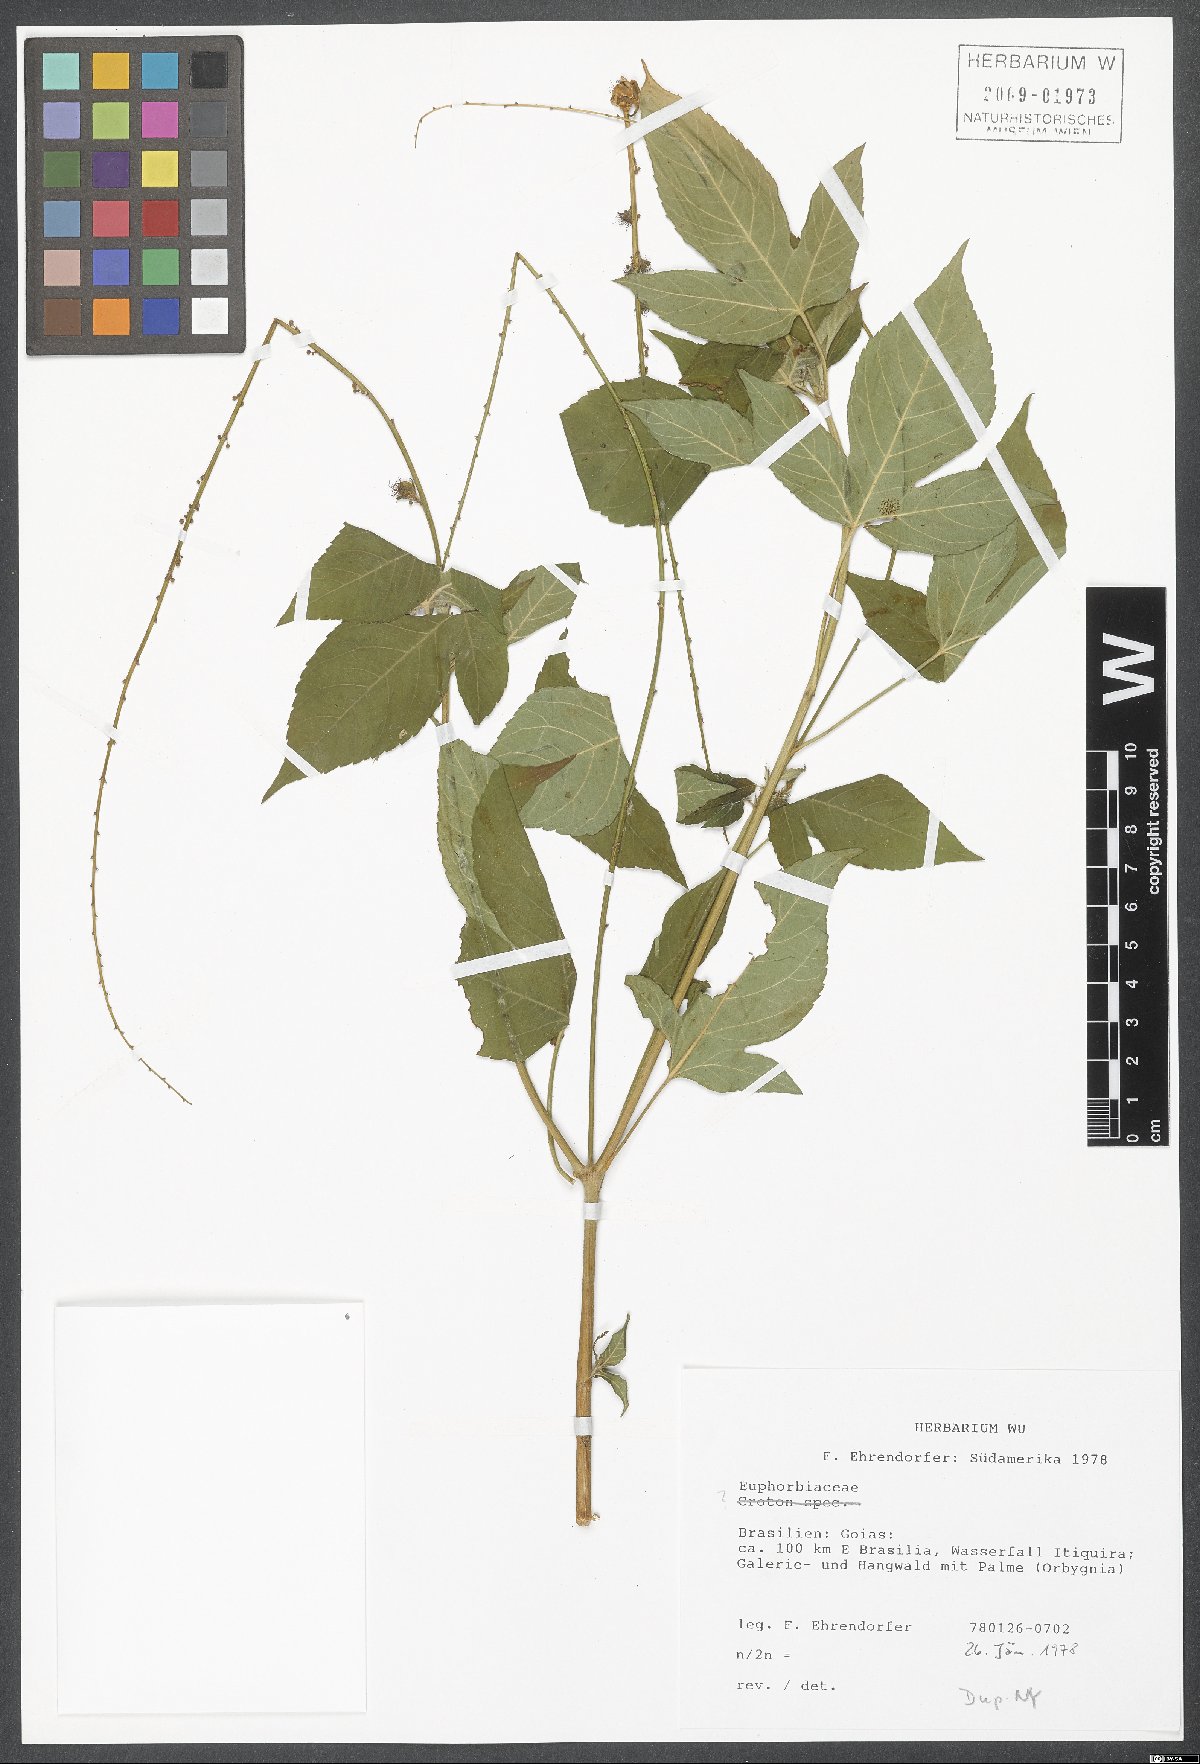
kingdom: Plantae
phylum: Tracheophyta
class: Magnoliopsida
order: Malpighiales
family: Euphorbiaceae
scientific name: Euphorbiaceae
